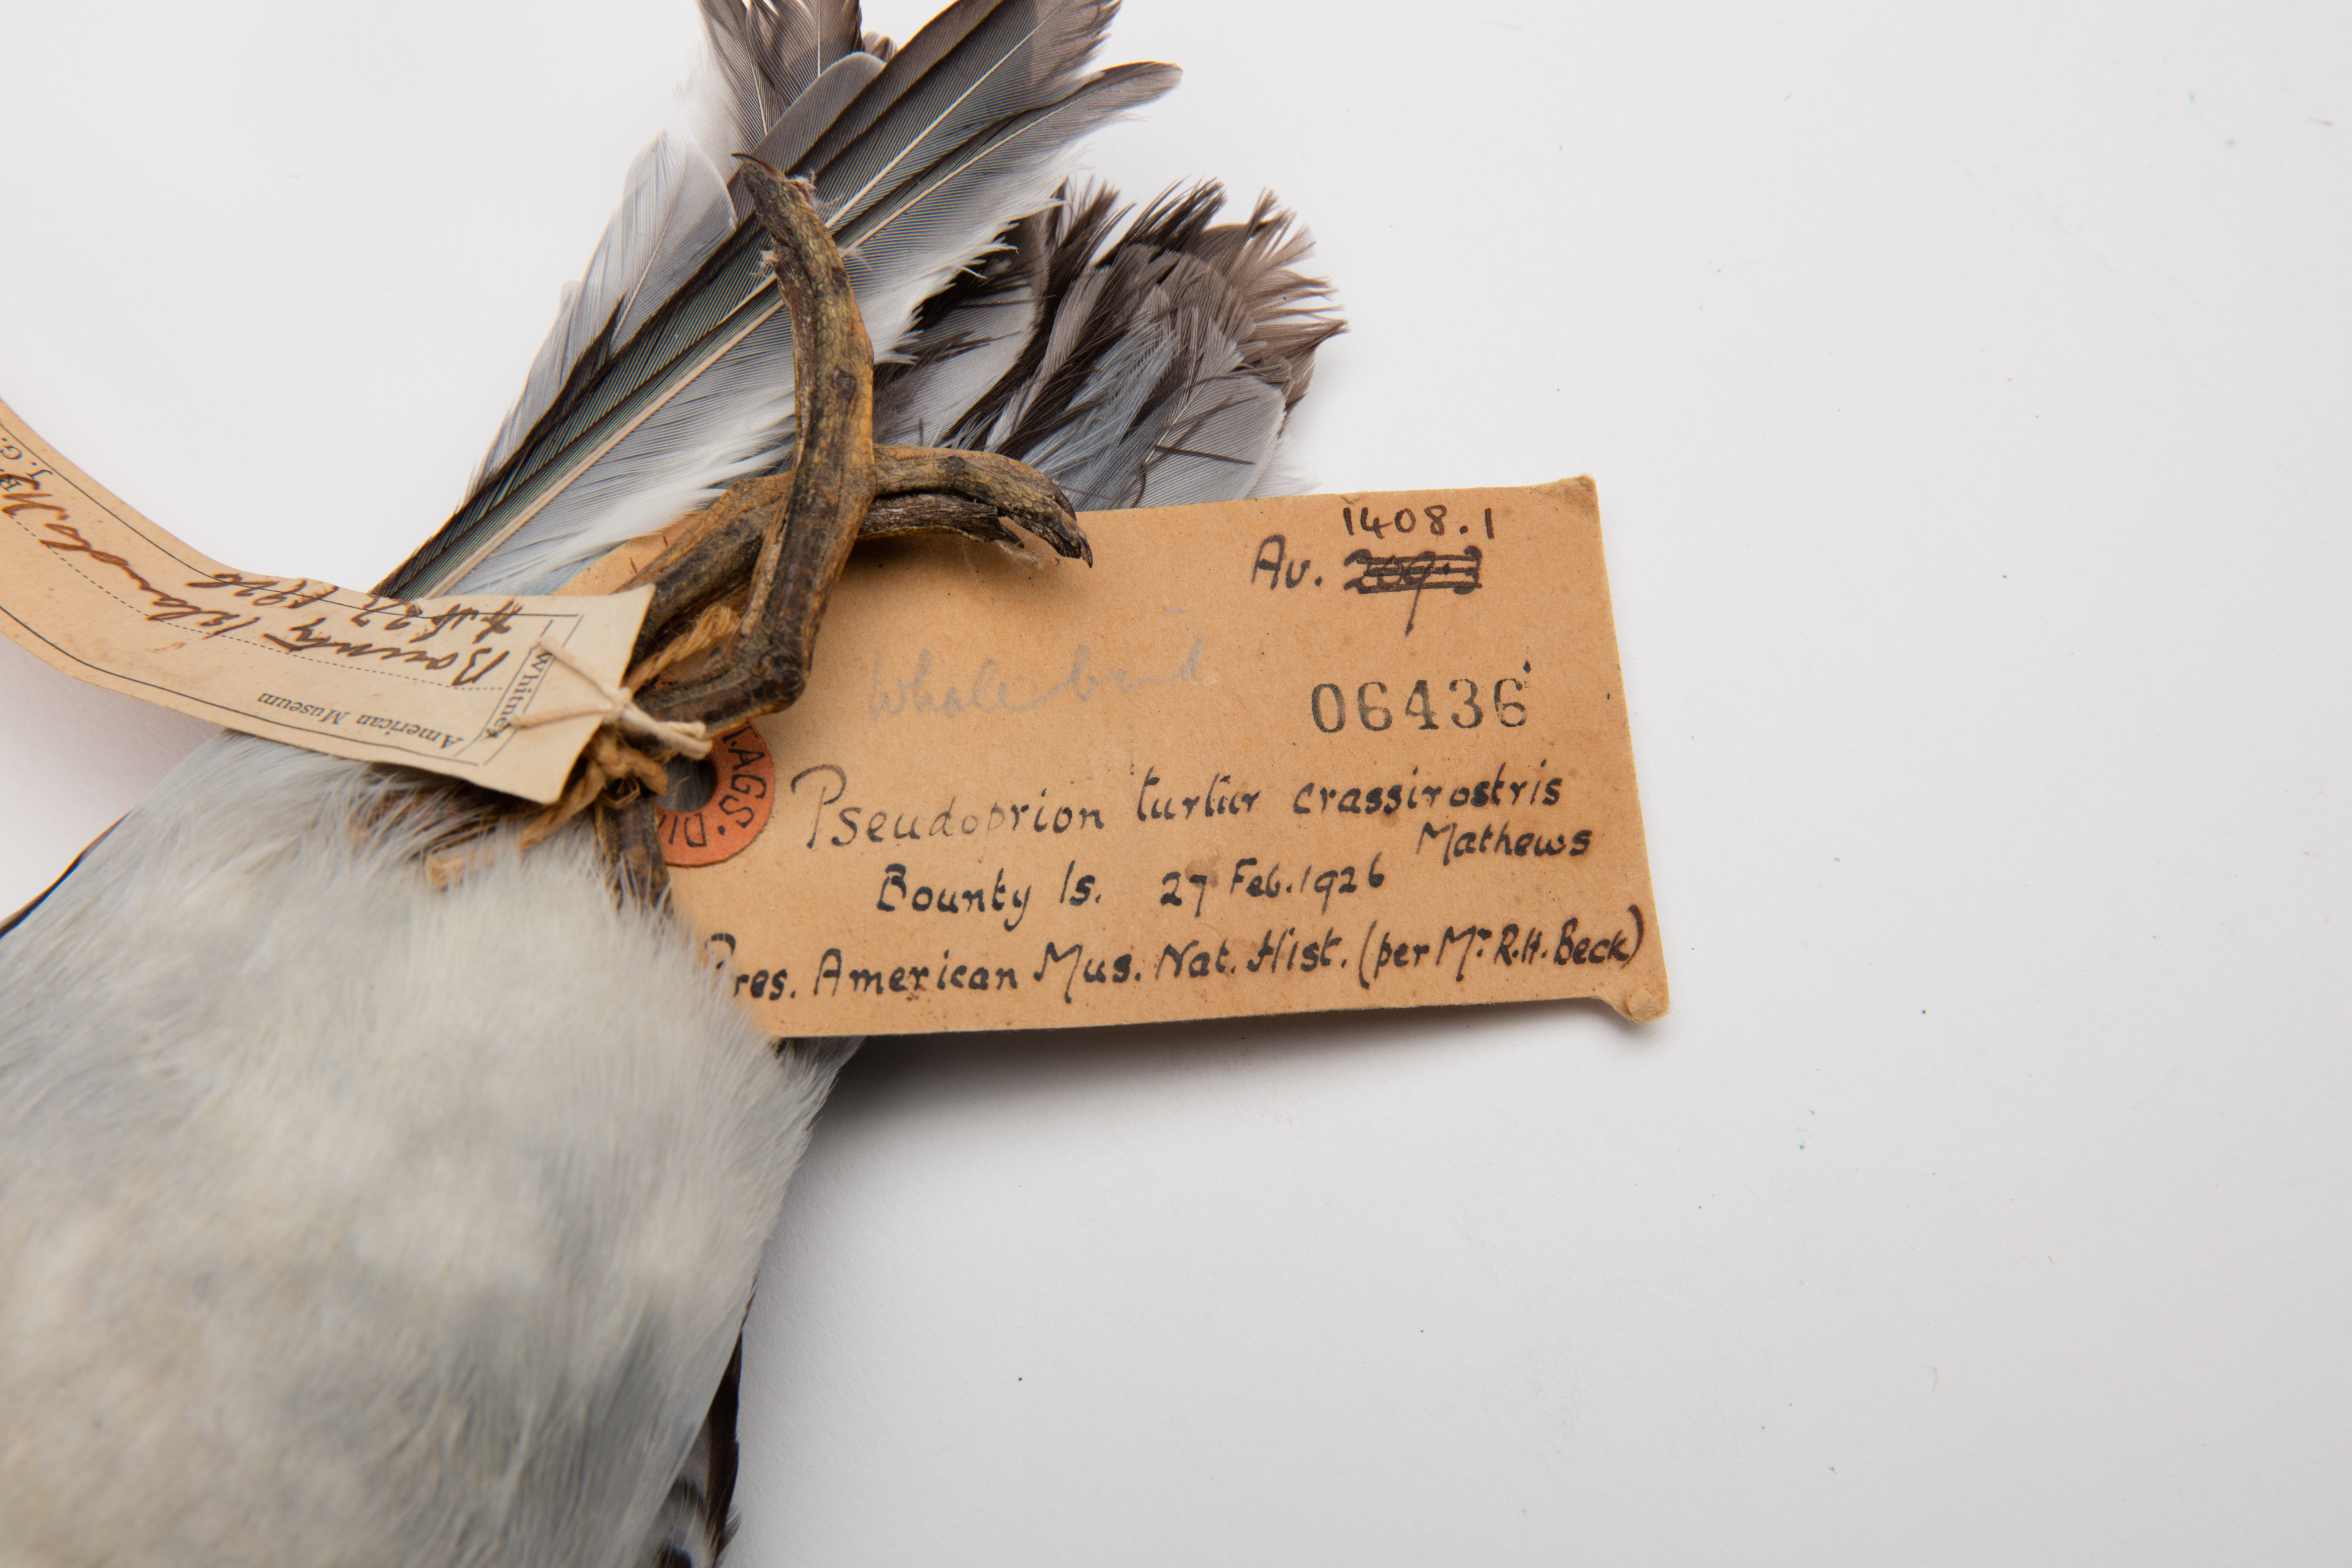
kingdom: Animalia
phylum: Chordata
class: Aves
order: Procellariiformes
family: Procellariidae
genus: Pachyptila
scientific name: Pachyptila crassirostris
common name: Fulmar prion
